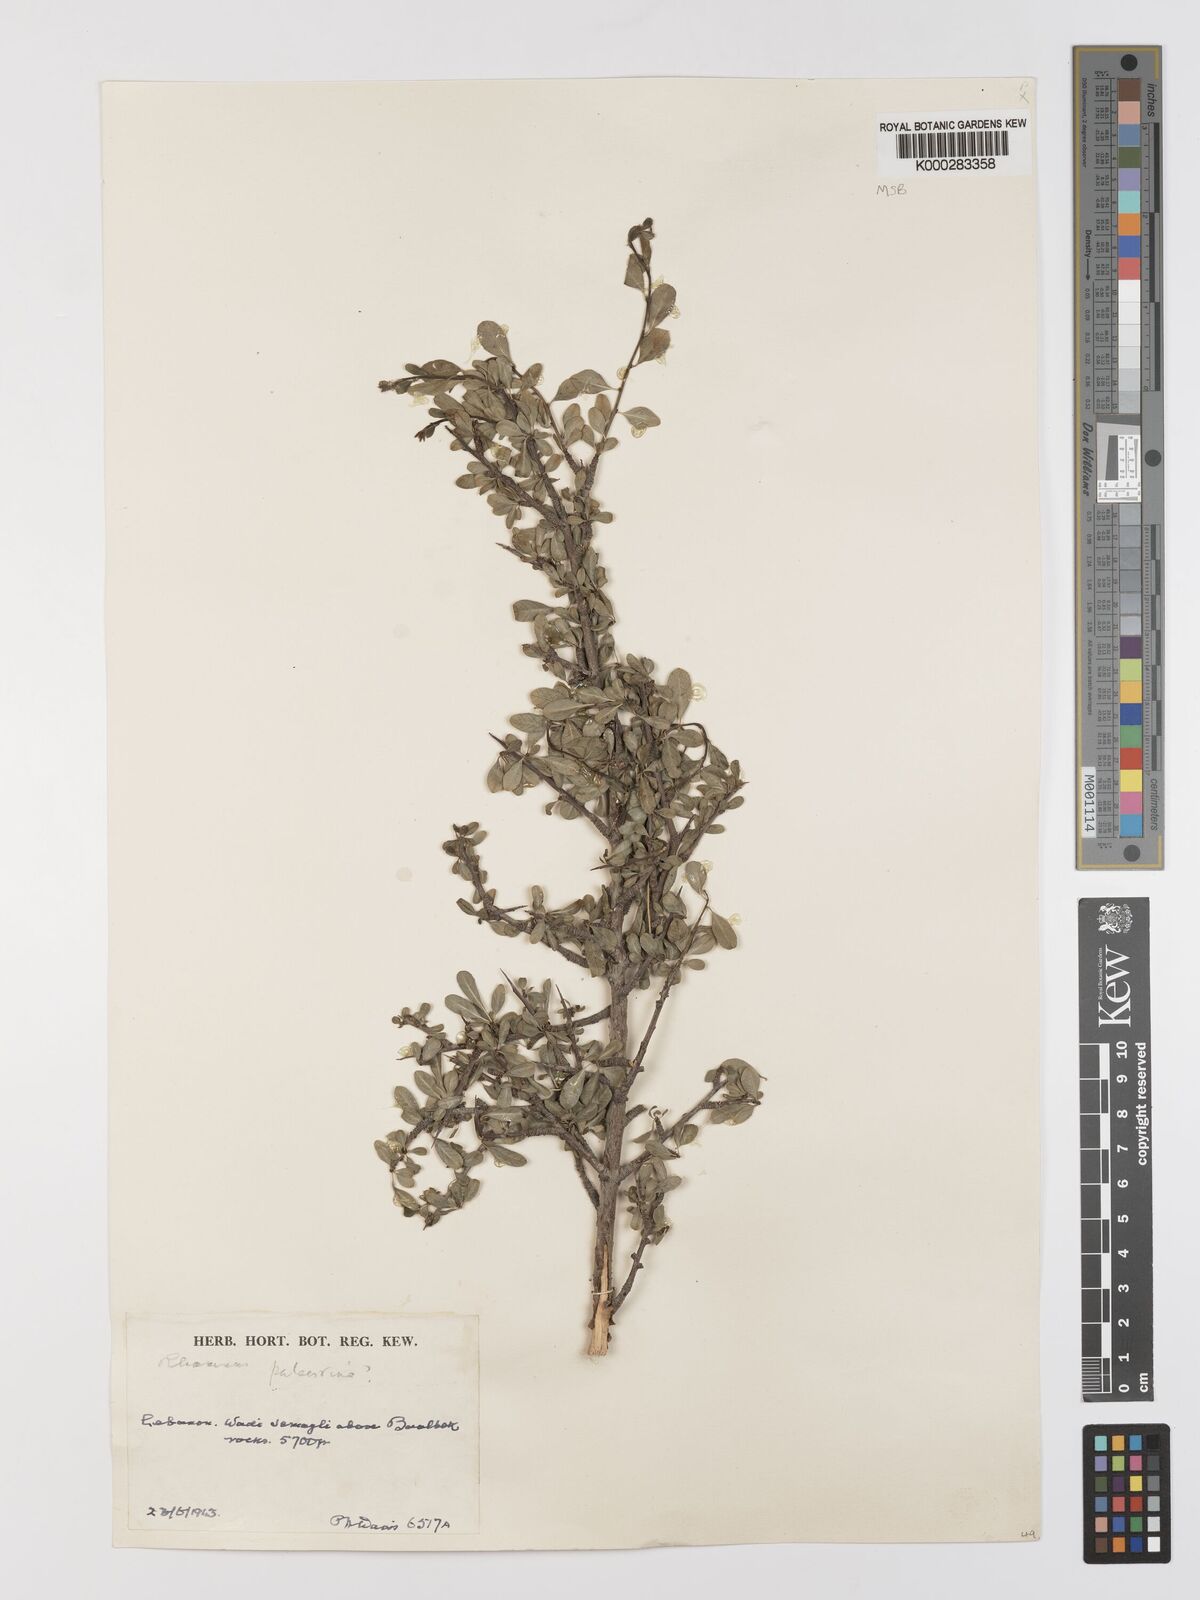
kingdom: Plantae
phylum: Tracheophyta
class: Magnoliopsida
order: Rosales
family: Rhamnaceae
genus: Rhamnus
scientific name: Rhamnus lycioides
